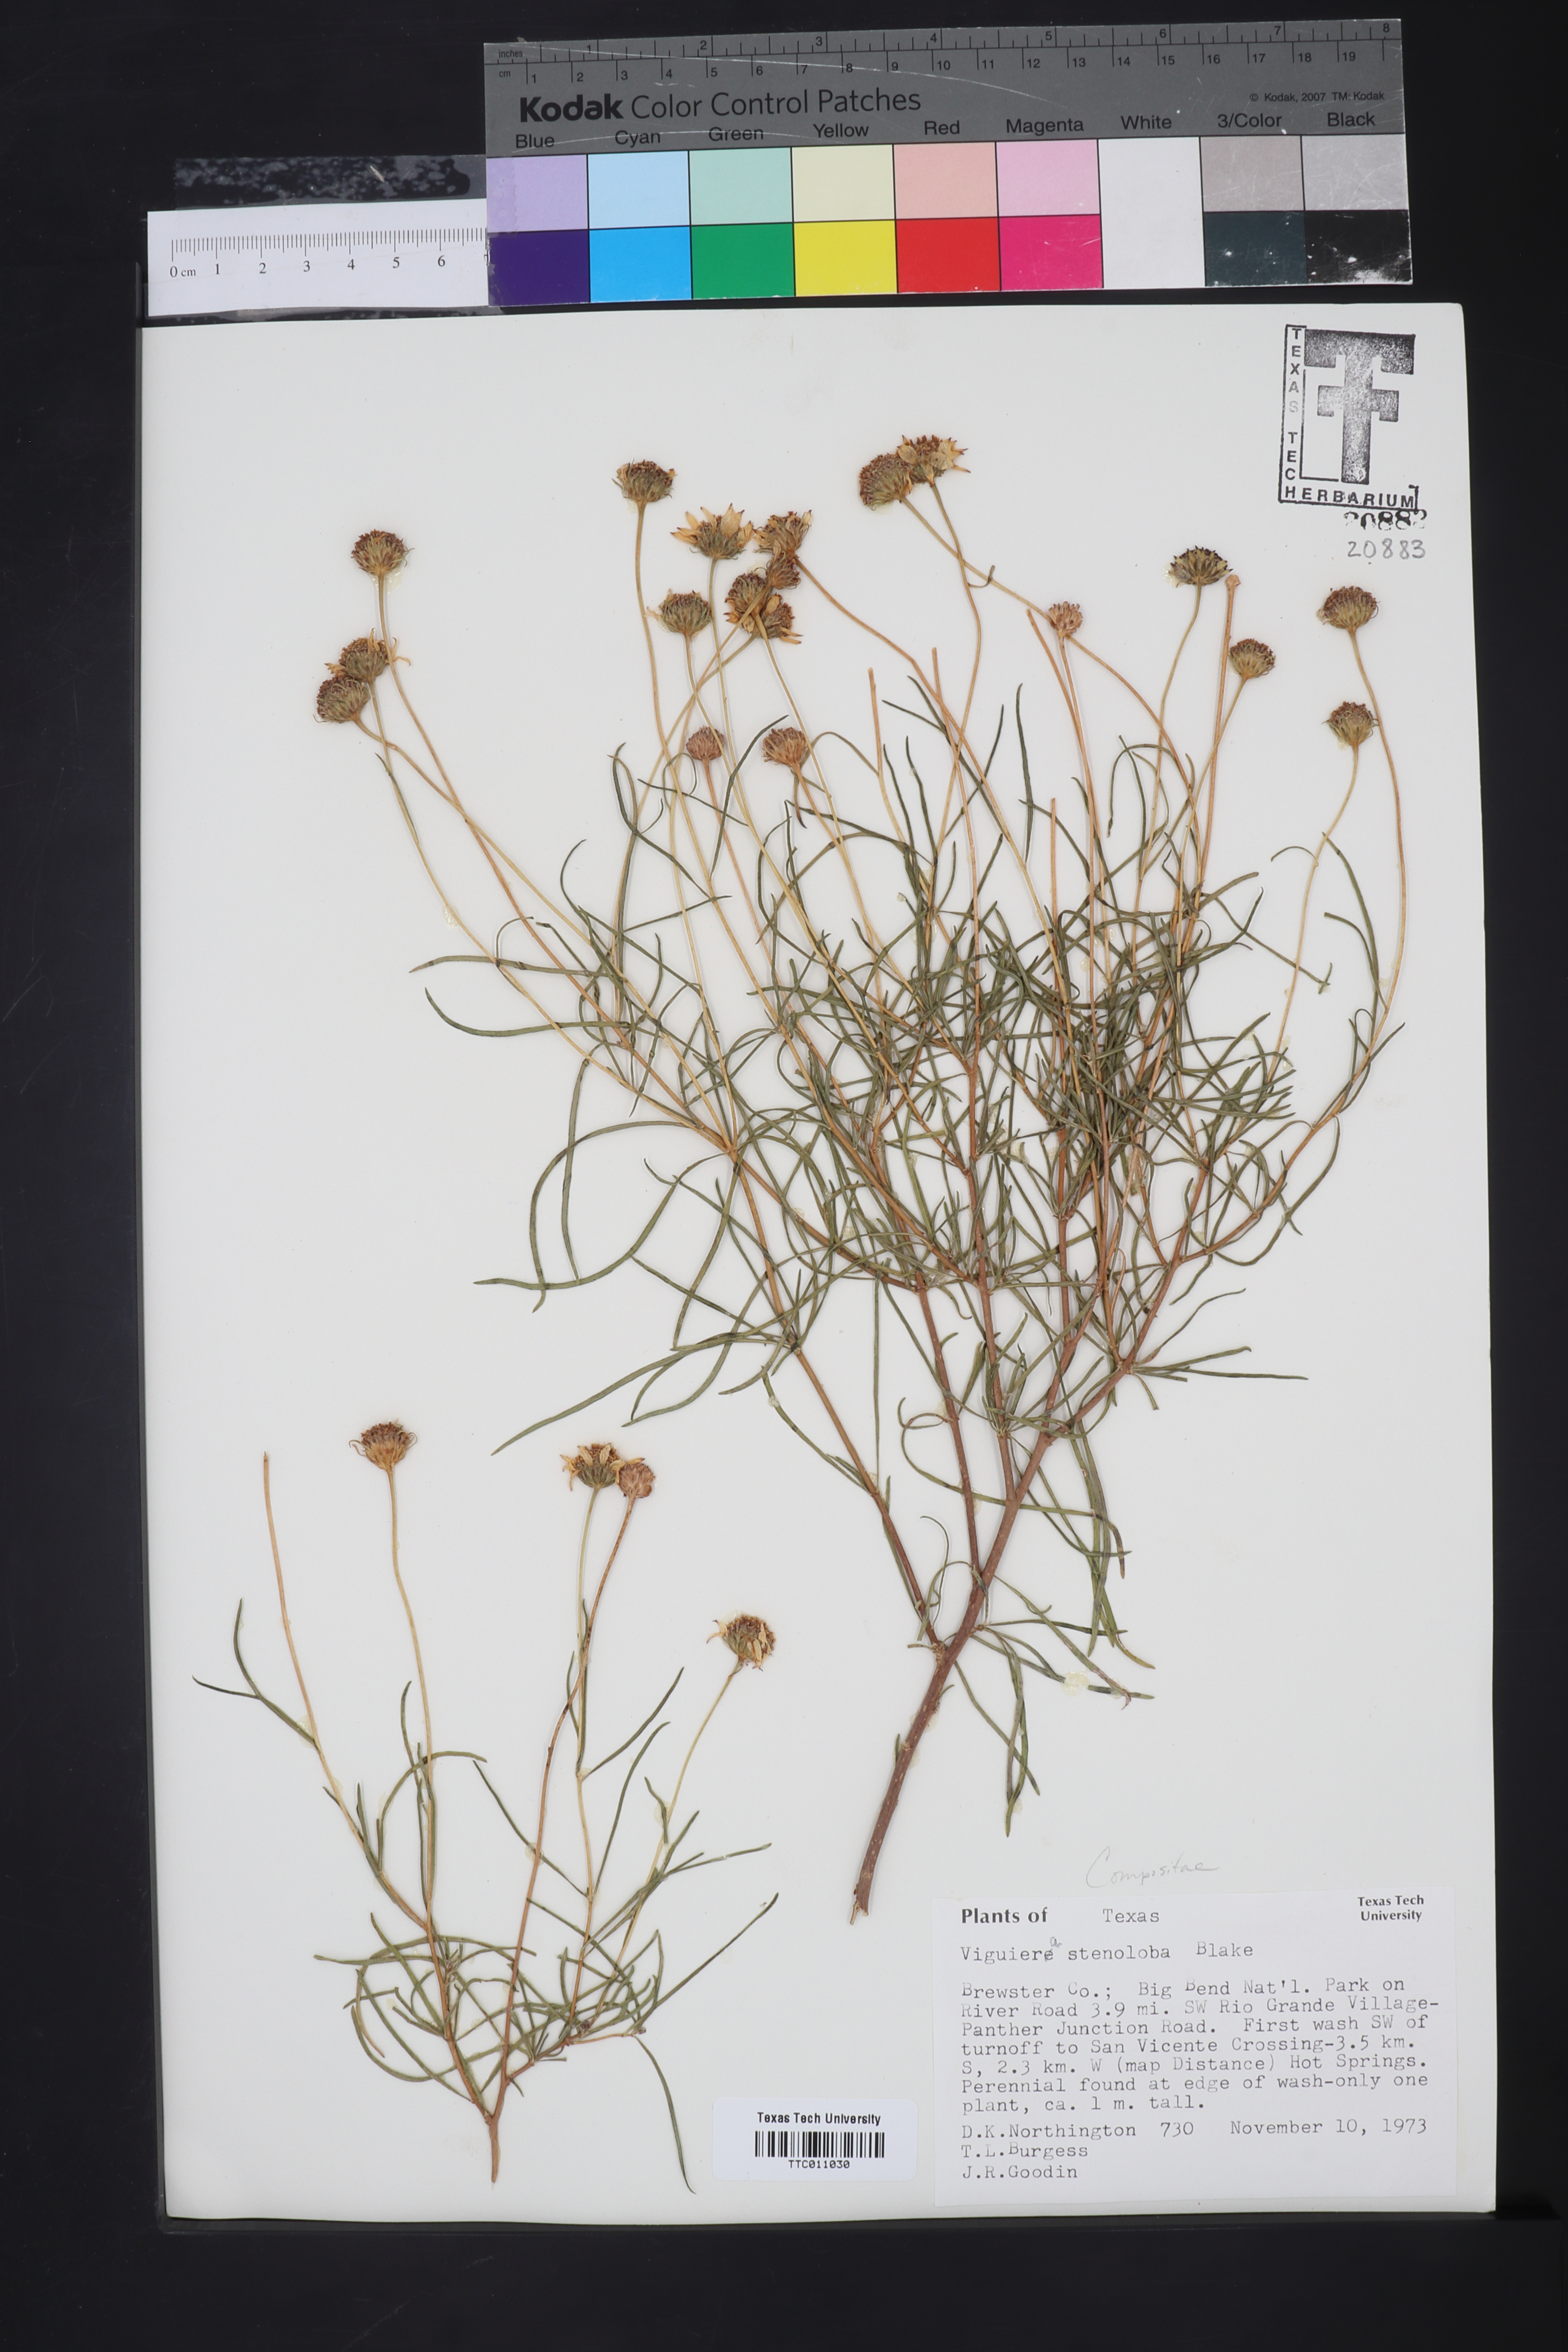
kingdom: Plantae
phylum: Tracheophyta
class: Magnoliopsida
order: Asterales
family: Asteraceae
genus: Sidneya
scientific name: Sidneya tenuifolia
